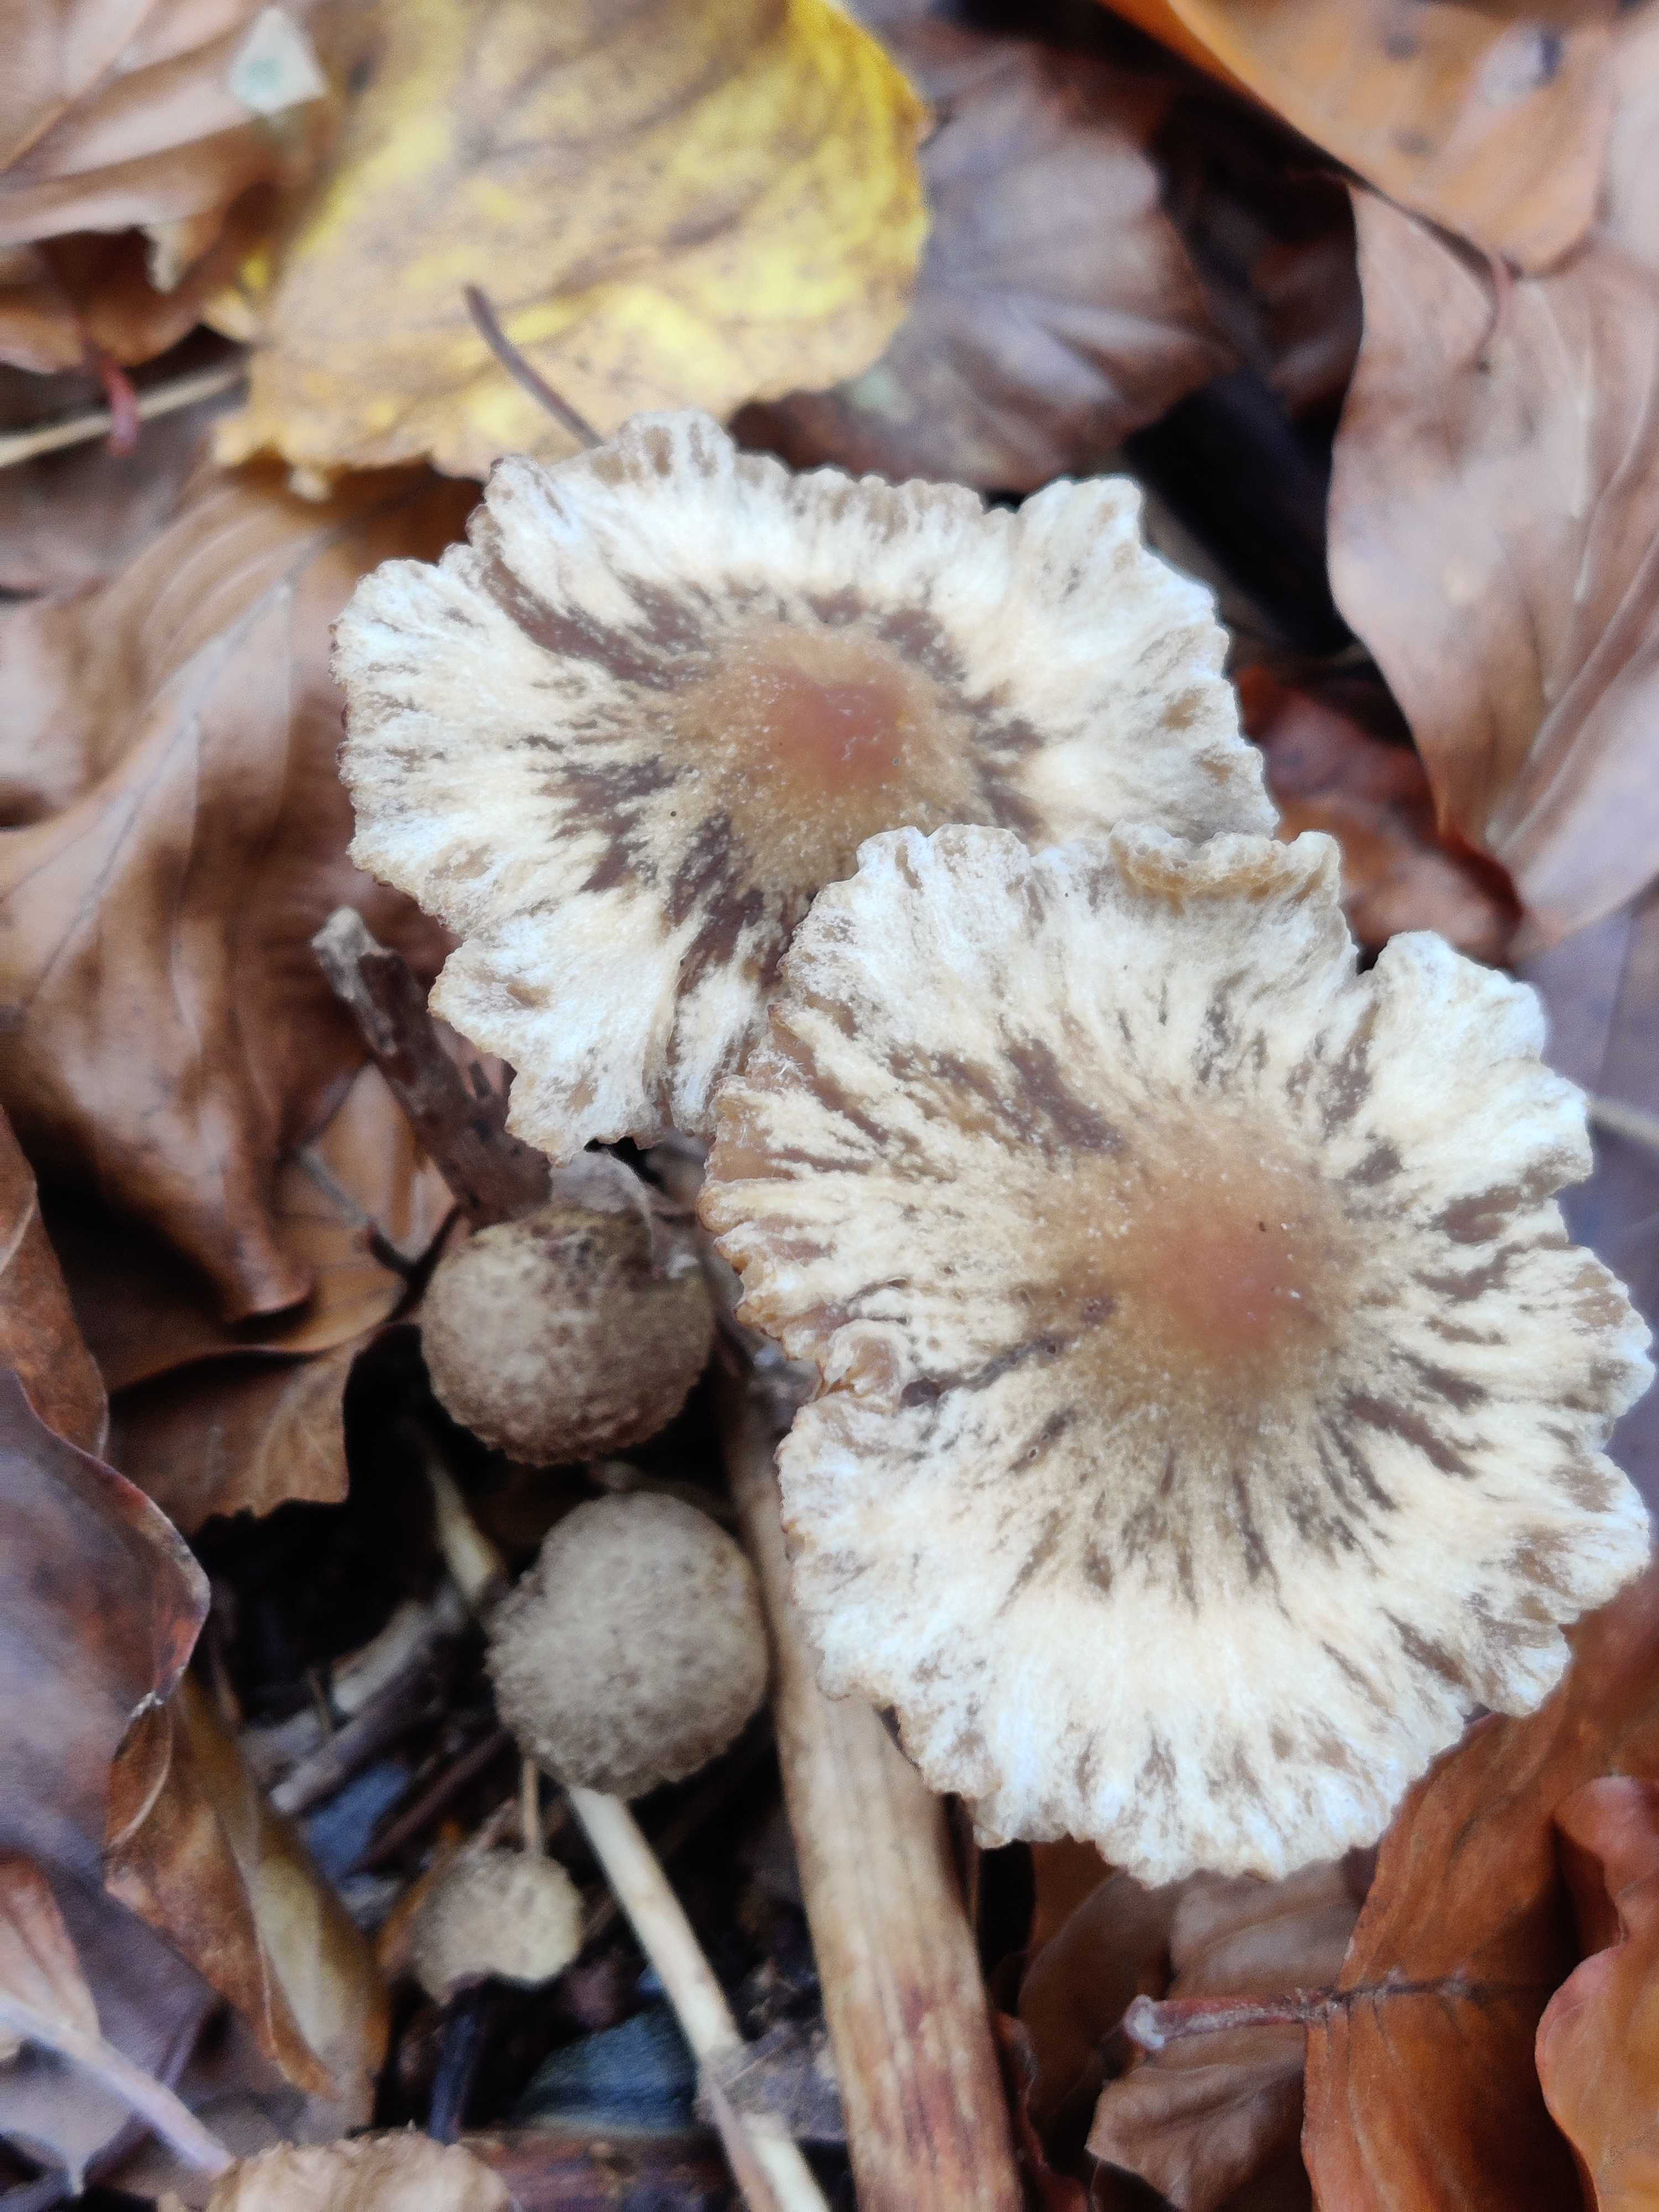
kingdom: Fungi
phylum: Basidiomycota
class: Agaricomycetes
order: Agaricales
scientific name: Agaricales
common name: champignonordenen
